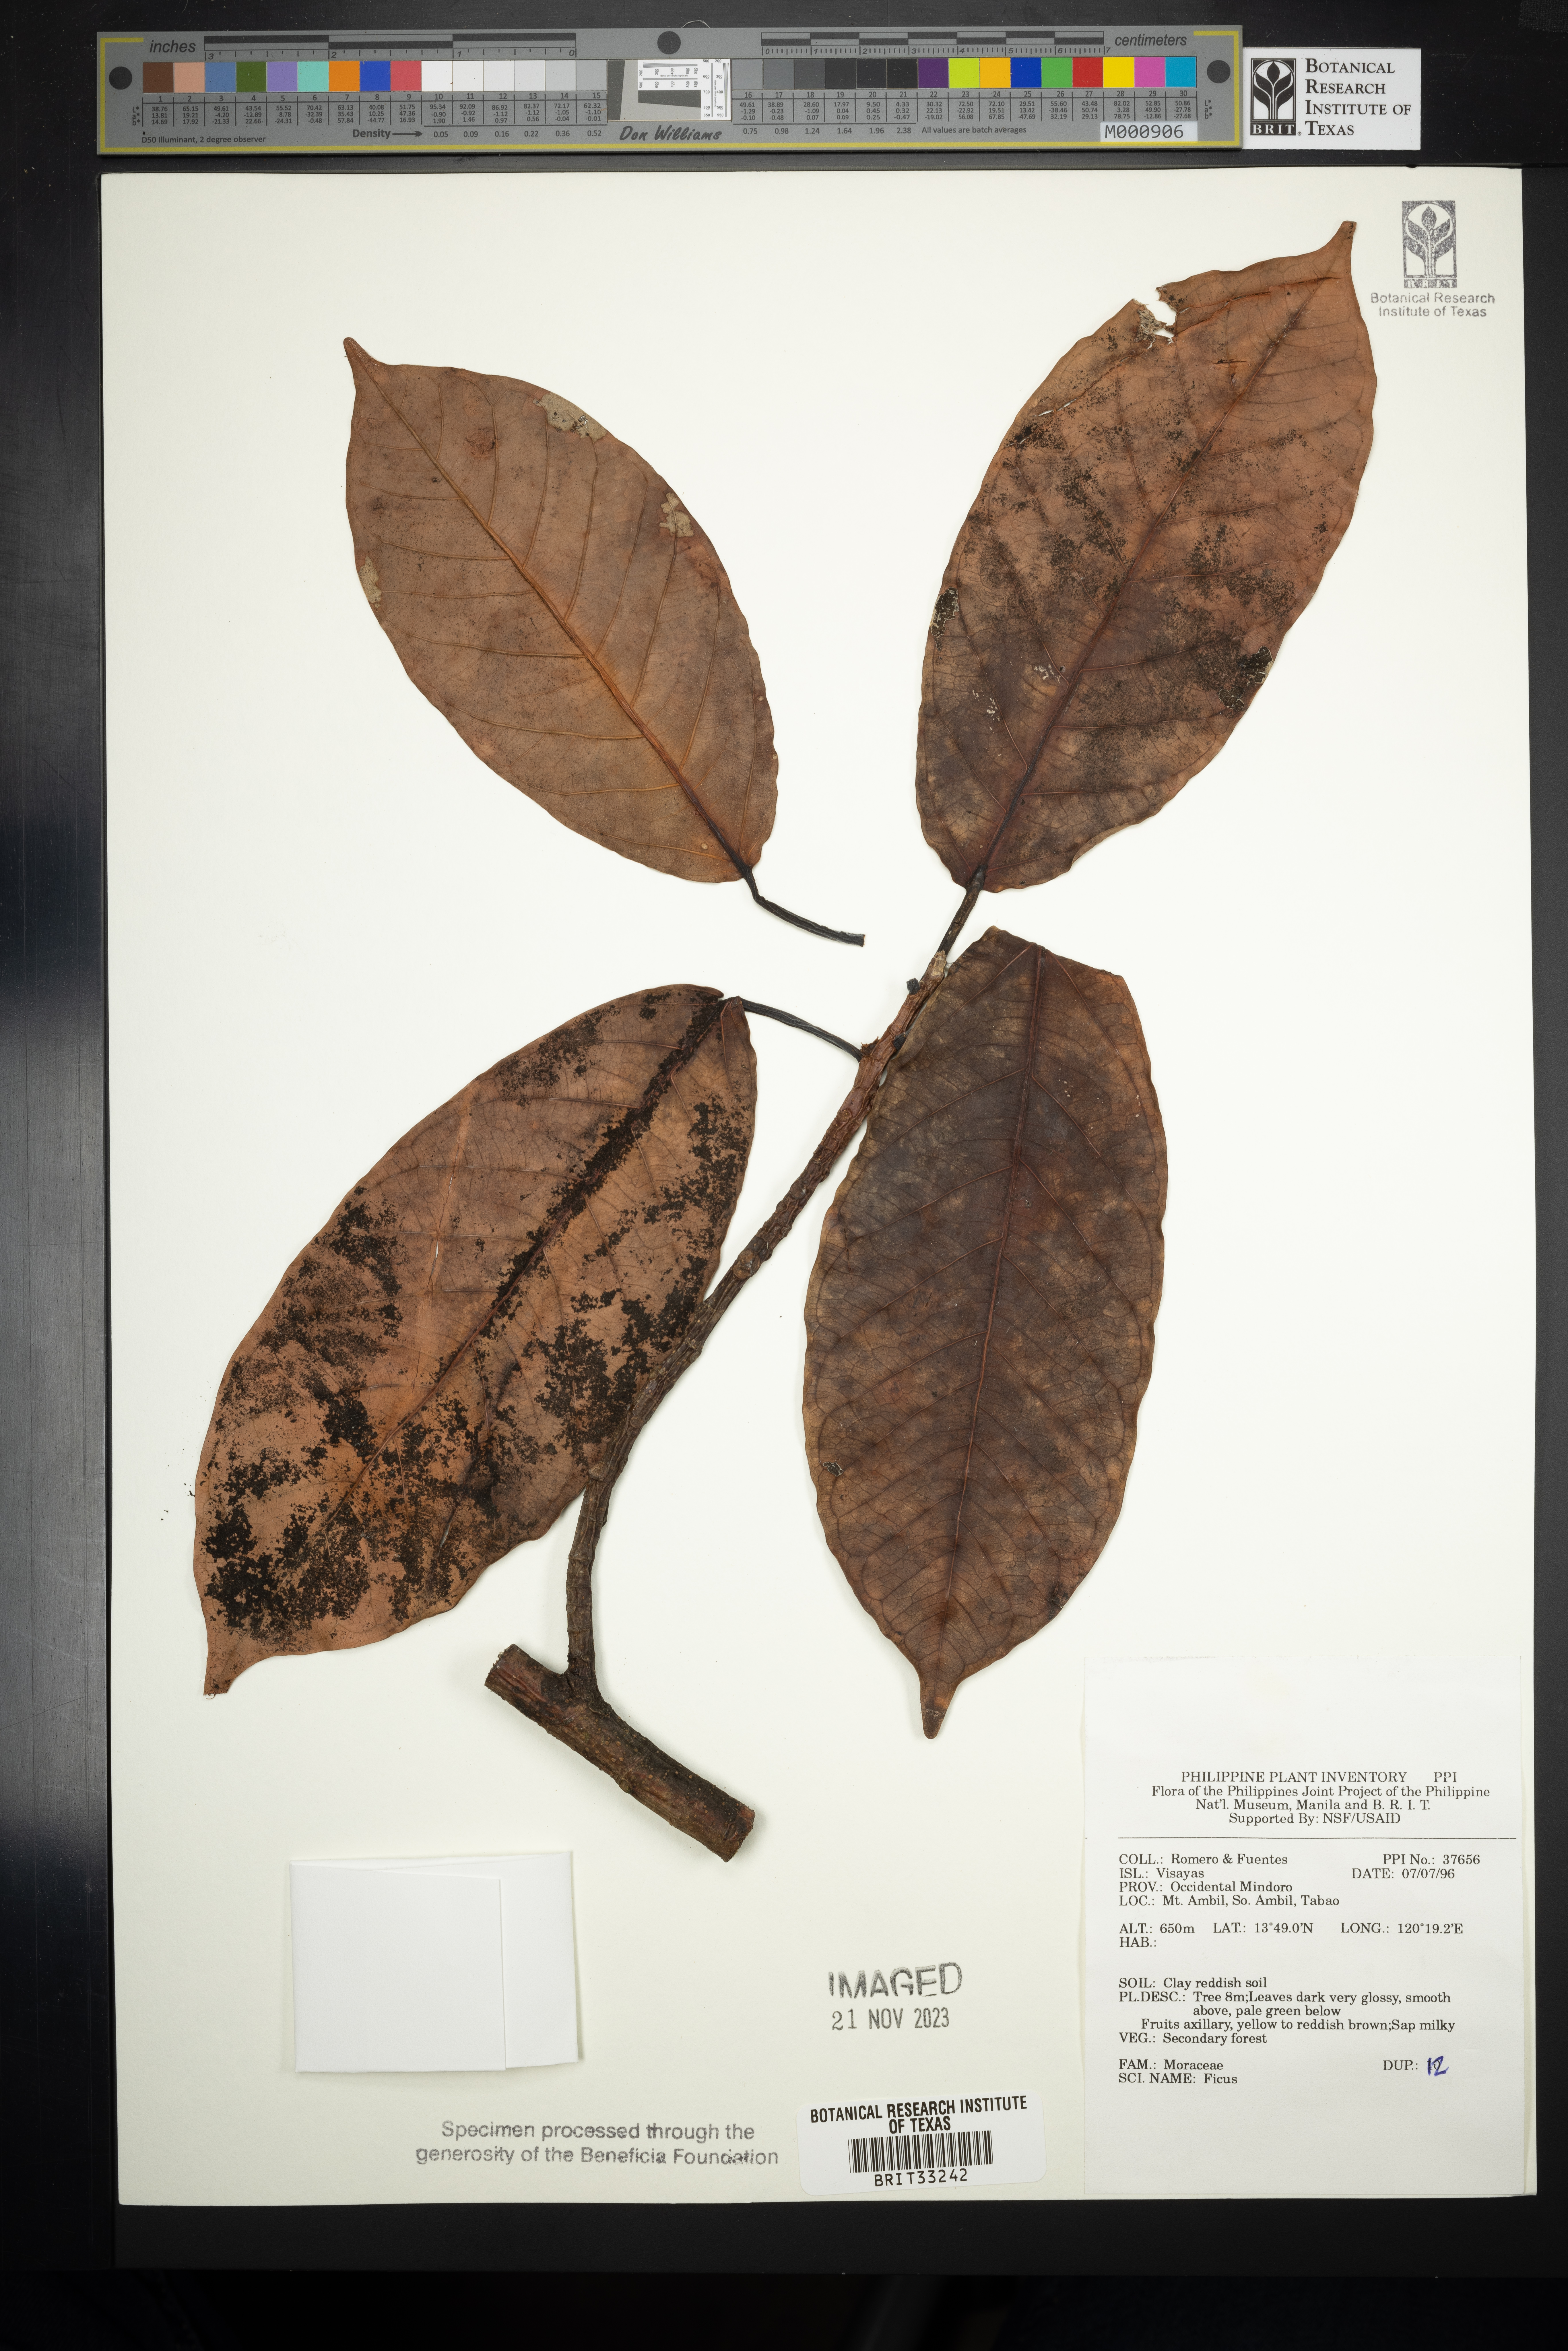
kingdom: Plantae
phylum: Tracheophyta
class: Magnoliopsida
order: Rosales
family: Moraceae
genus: Ficus
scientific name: Ficus
